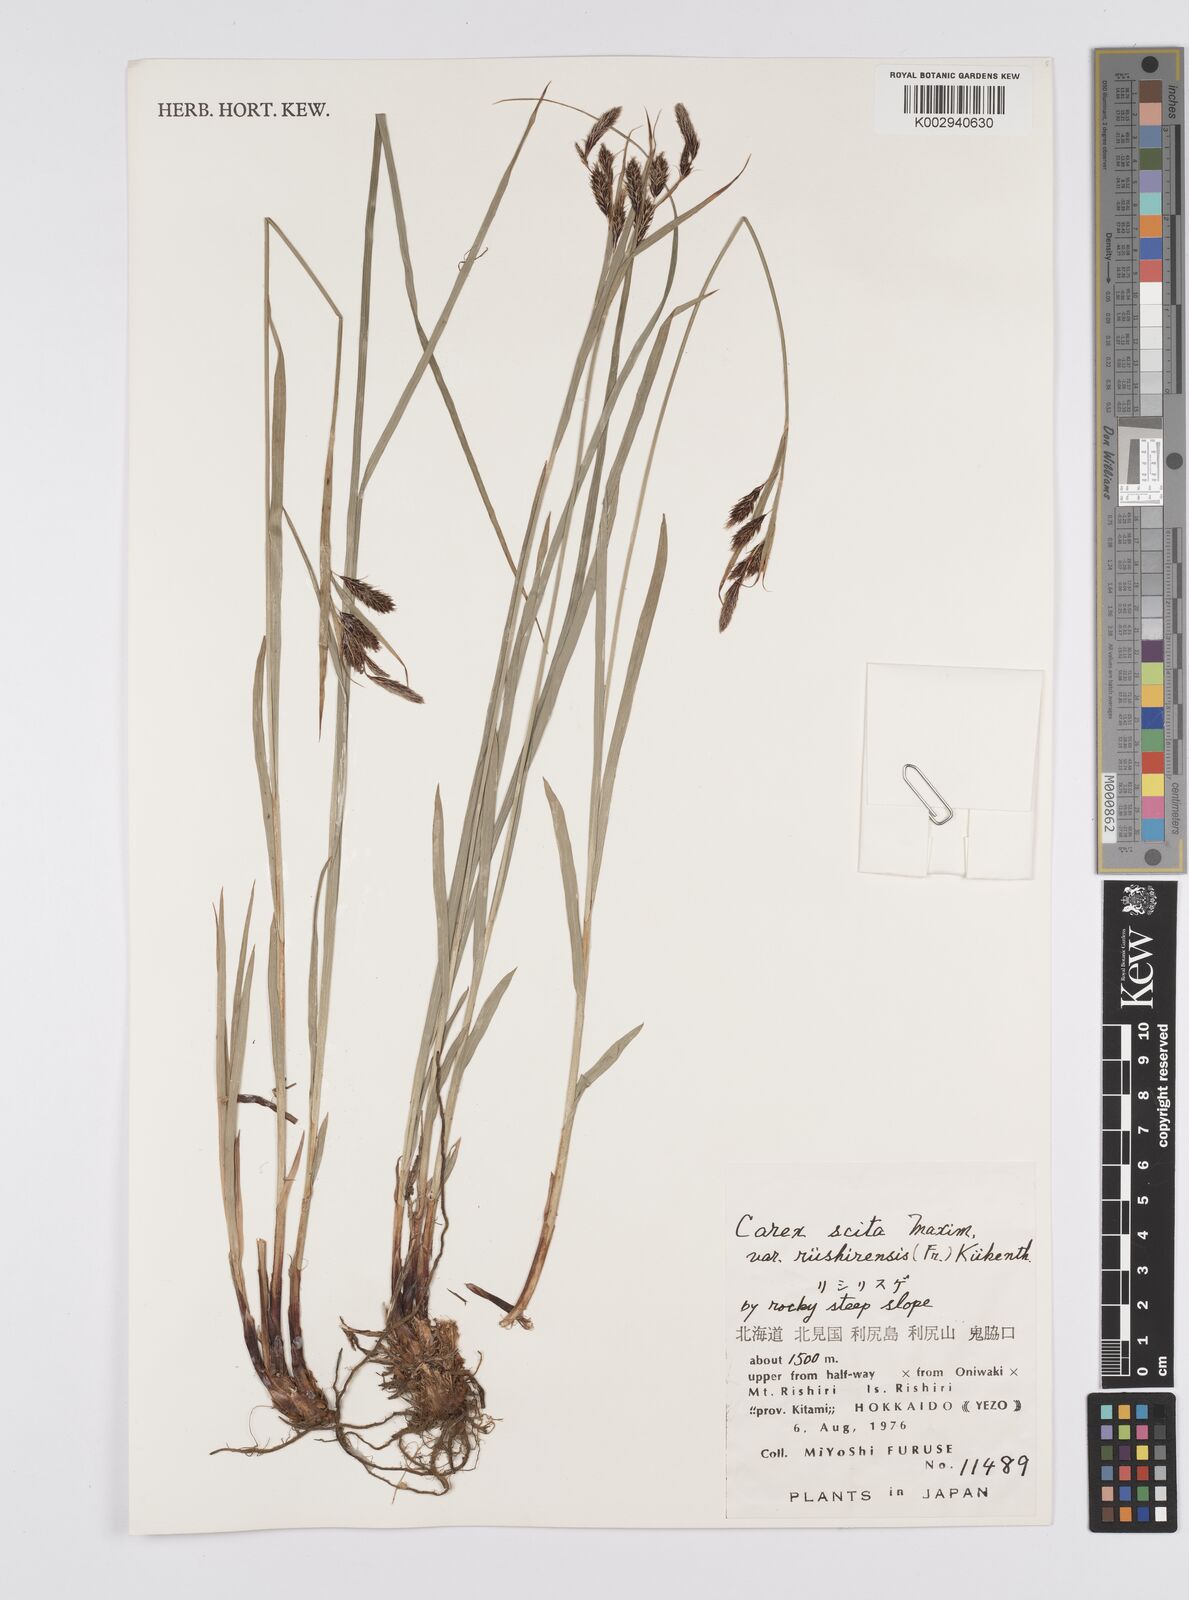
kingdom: Plantae
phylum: Tracheophyta
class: Liliopsida
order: Poales
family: Cyperaceae
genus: Carex
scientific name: Carex scita
